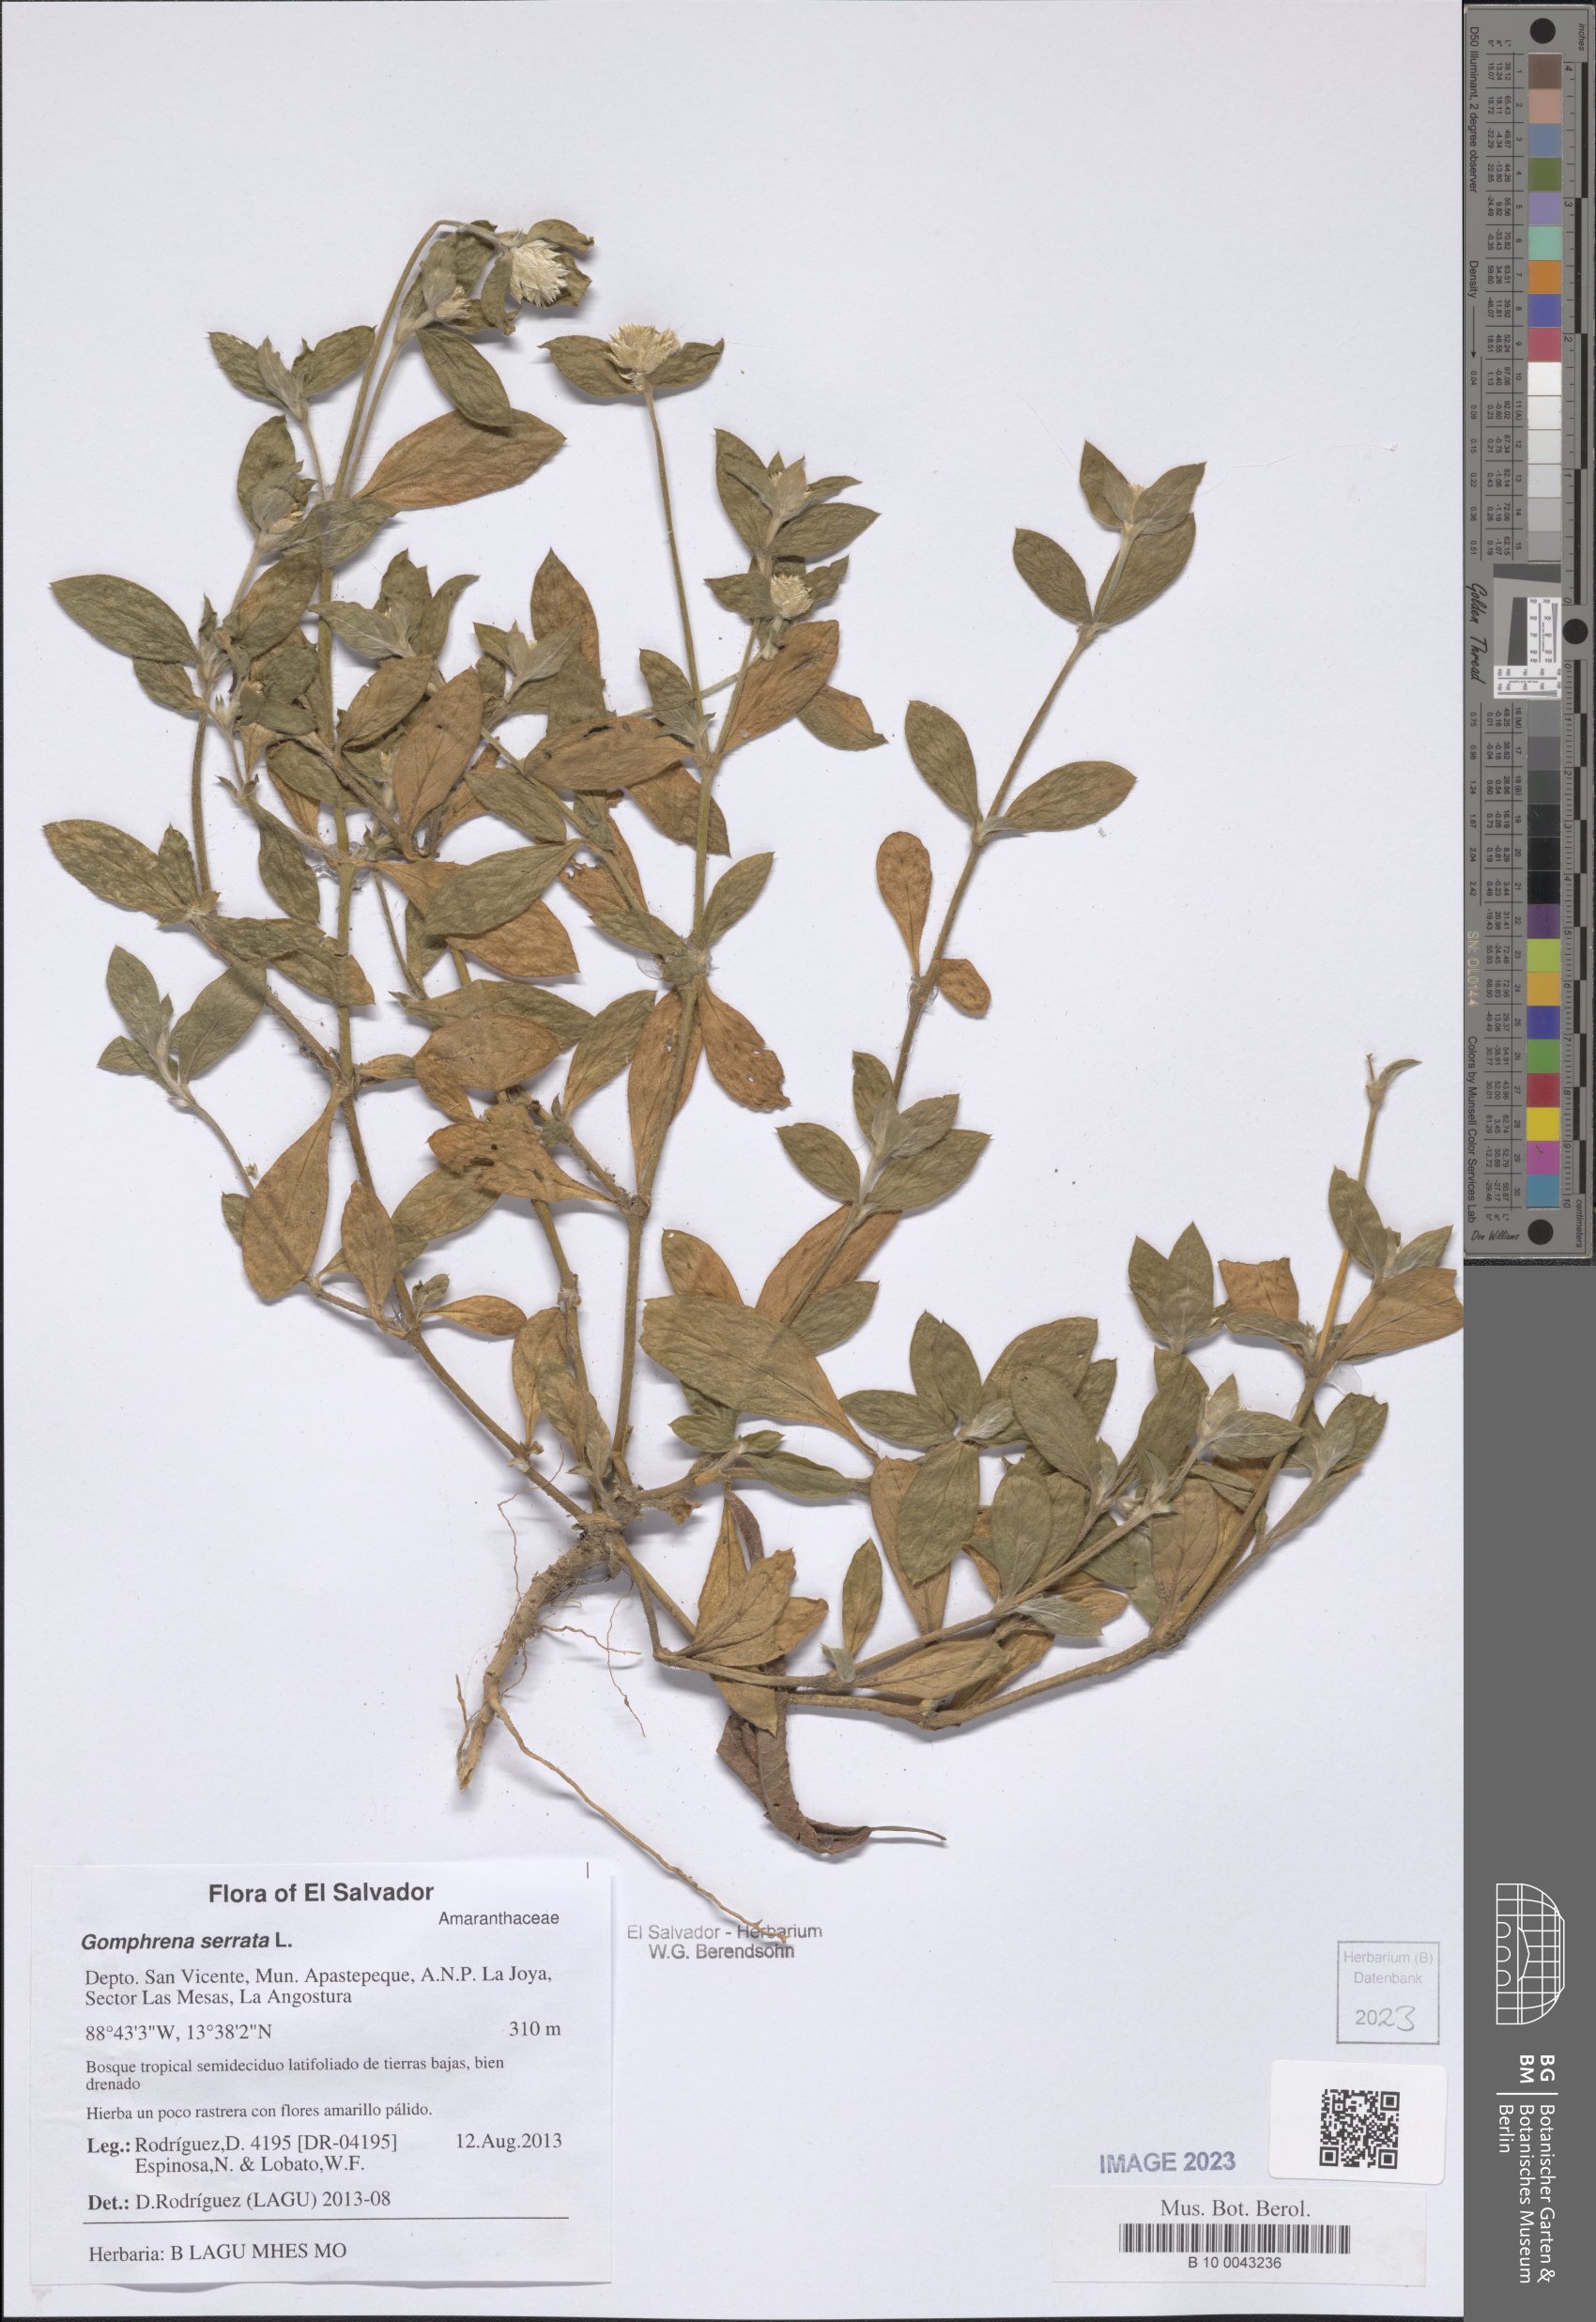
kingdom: Plantae
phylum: Tracheophyta
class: Magnoliopsida
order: Caryophyllales
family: Amaranthaceae
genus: Gomphrena
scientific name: Gomphrena serrata
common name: Arrasa con todo
